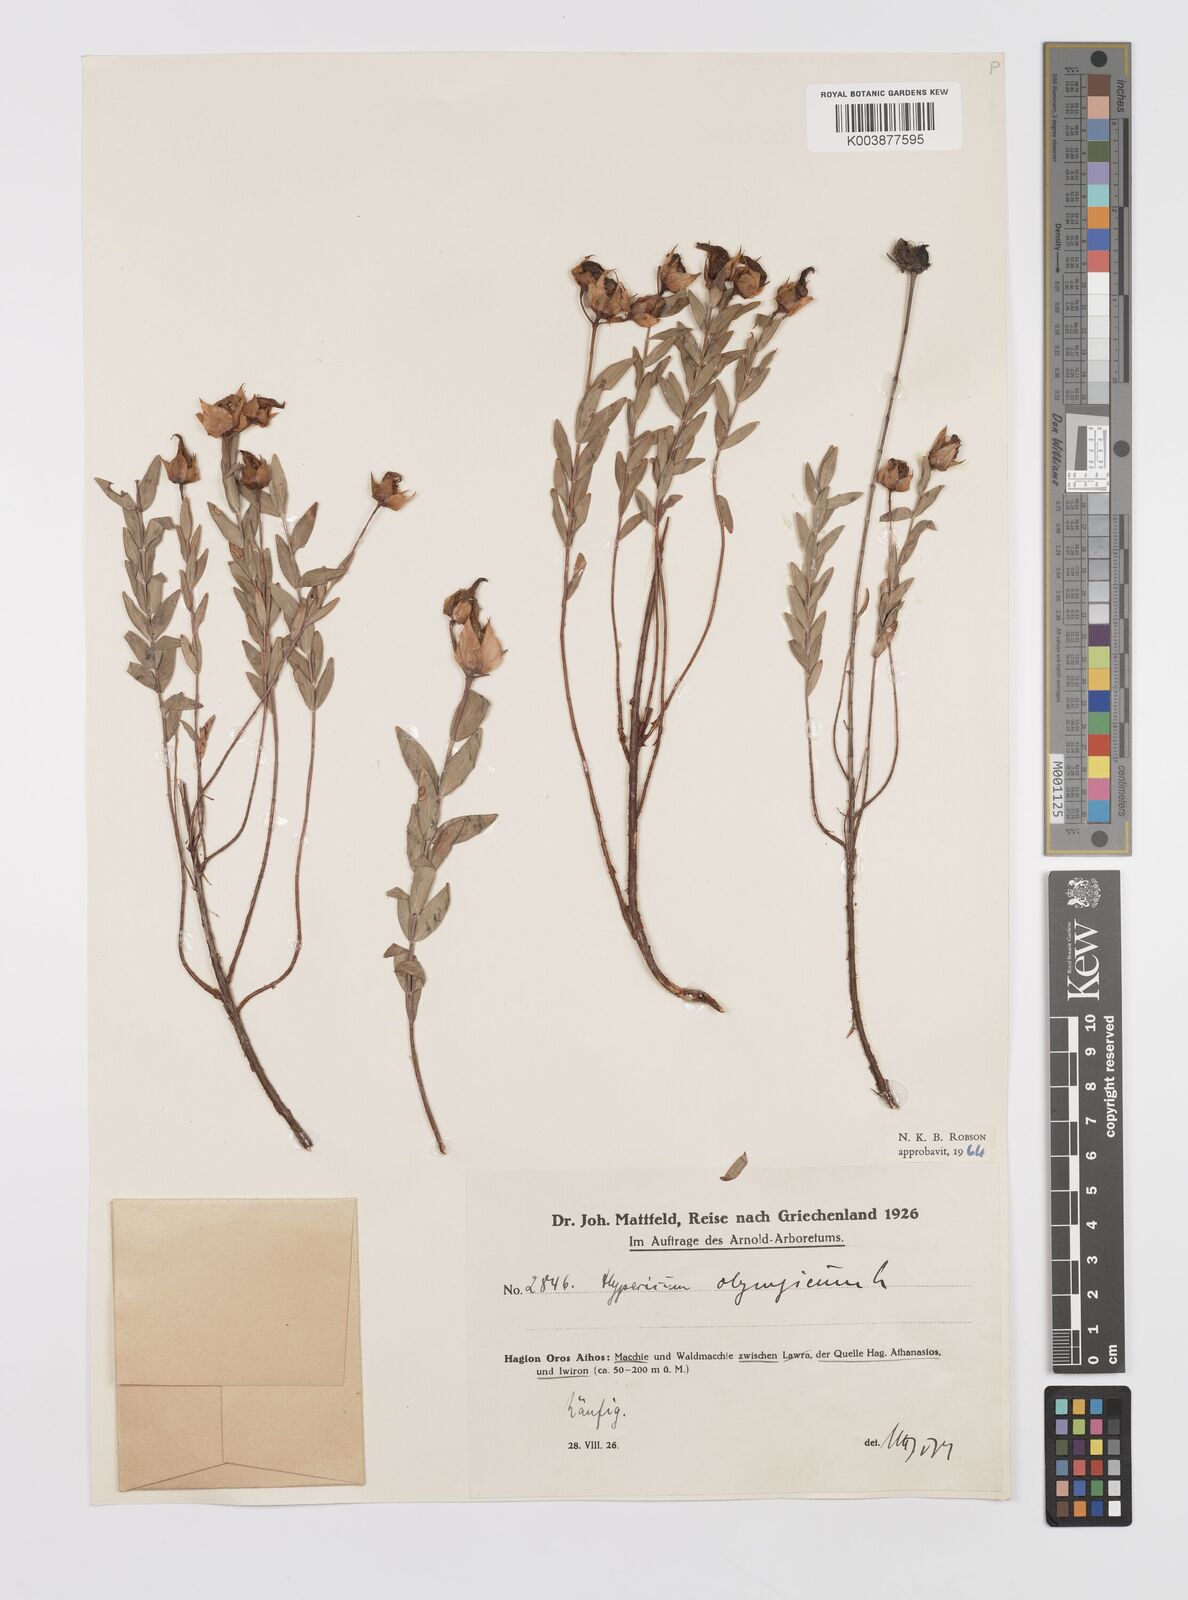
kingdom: Plantae
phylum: Tracheophyta
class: Magnoliopsida
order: Malpighiales
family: Hypericaceae
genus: Hypericum
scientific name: Hypericum olympicum
